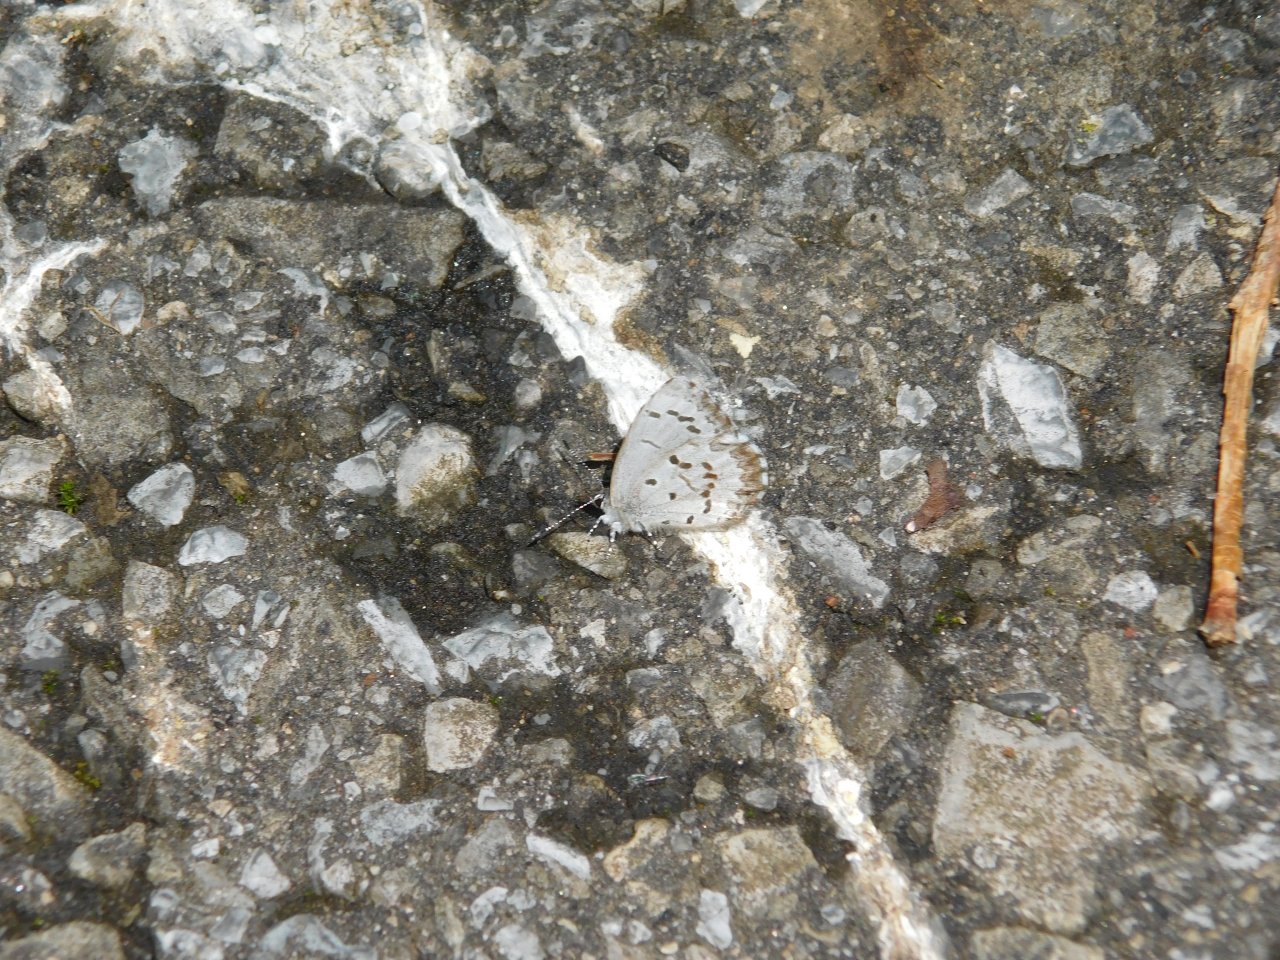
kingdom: Animalia
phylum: Arthropoda
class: Insecta
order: Lepidoptera
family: Lycaenidae
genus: Celastrina
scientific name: Celastrina lucia
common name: Northern Spring Azure
